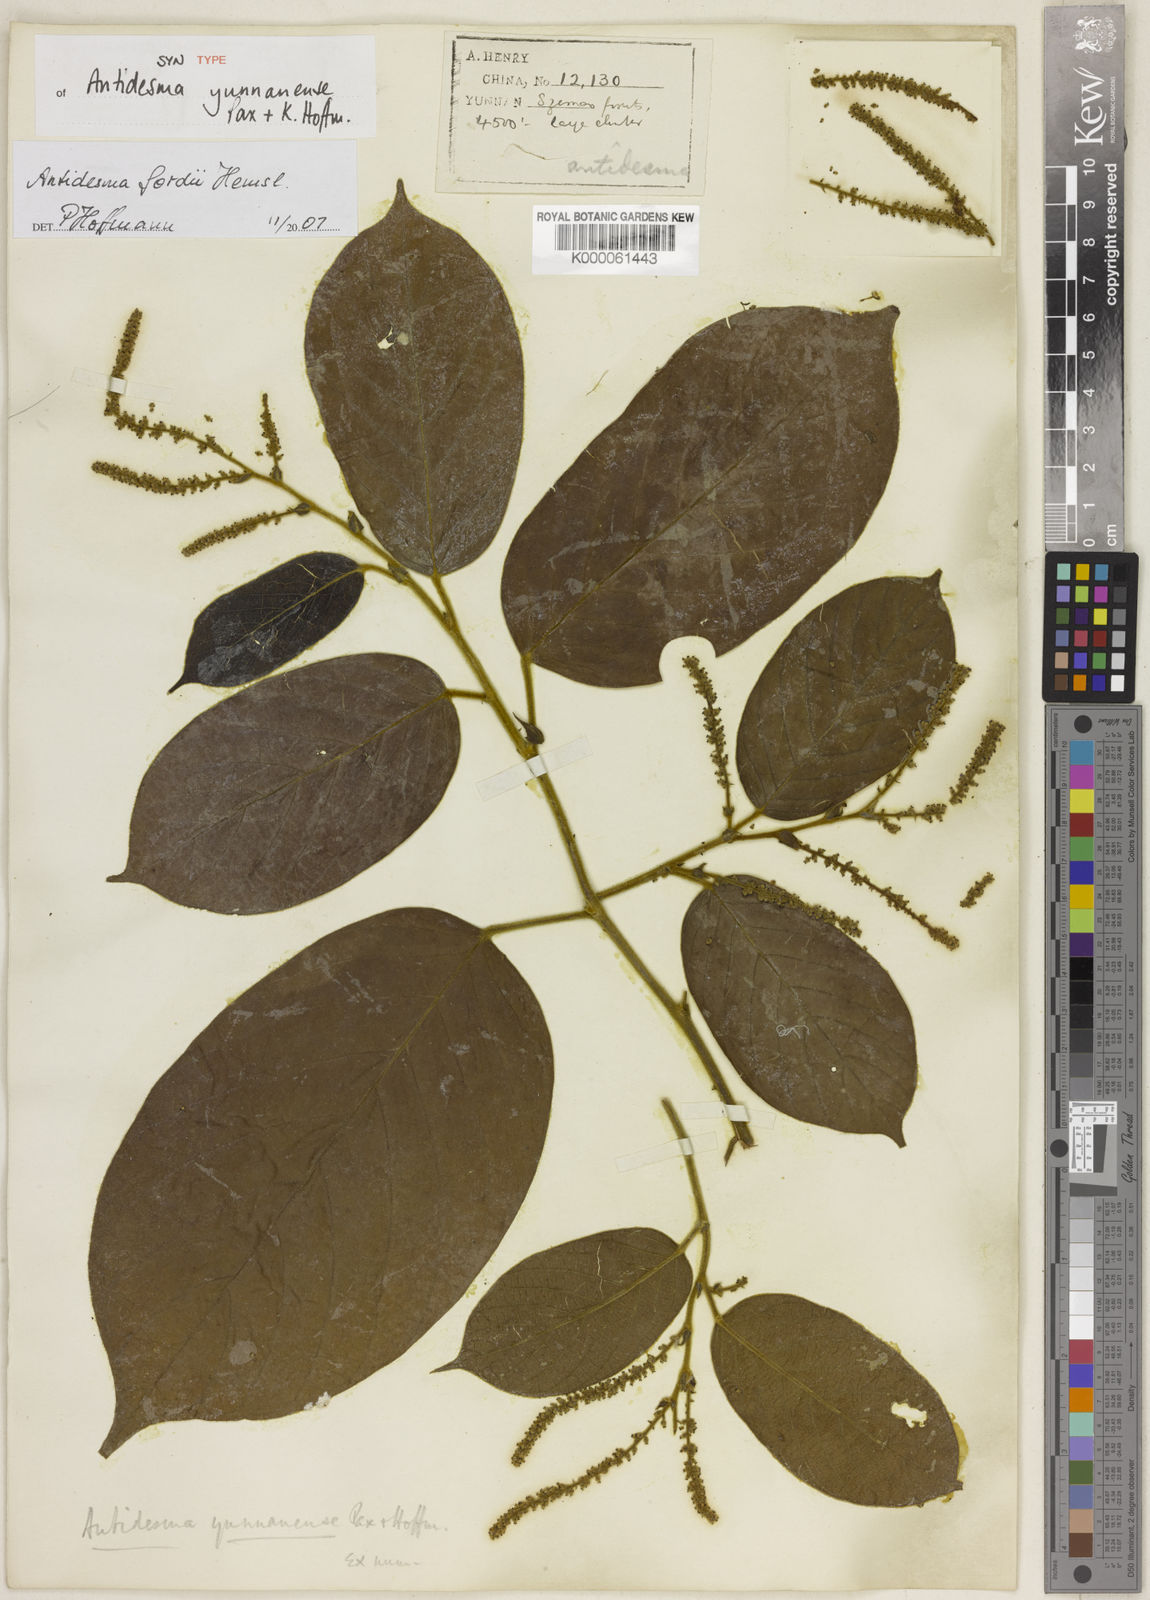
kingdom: Plantae
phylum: Tracheophyta
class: Magnoliopsida
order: Malpighiales
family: Phyllanthaceae
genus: Antidesma
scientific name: Antidesma fordii
